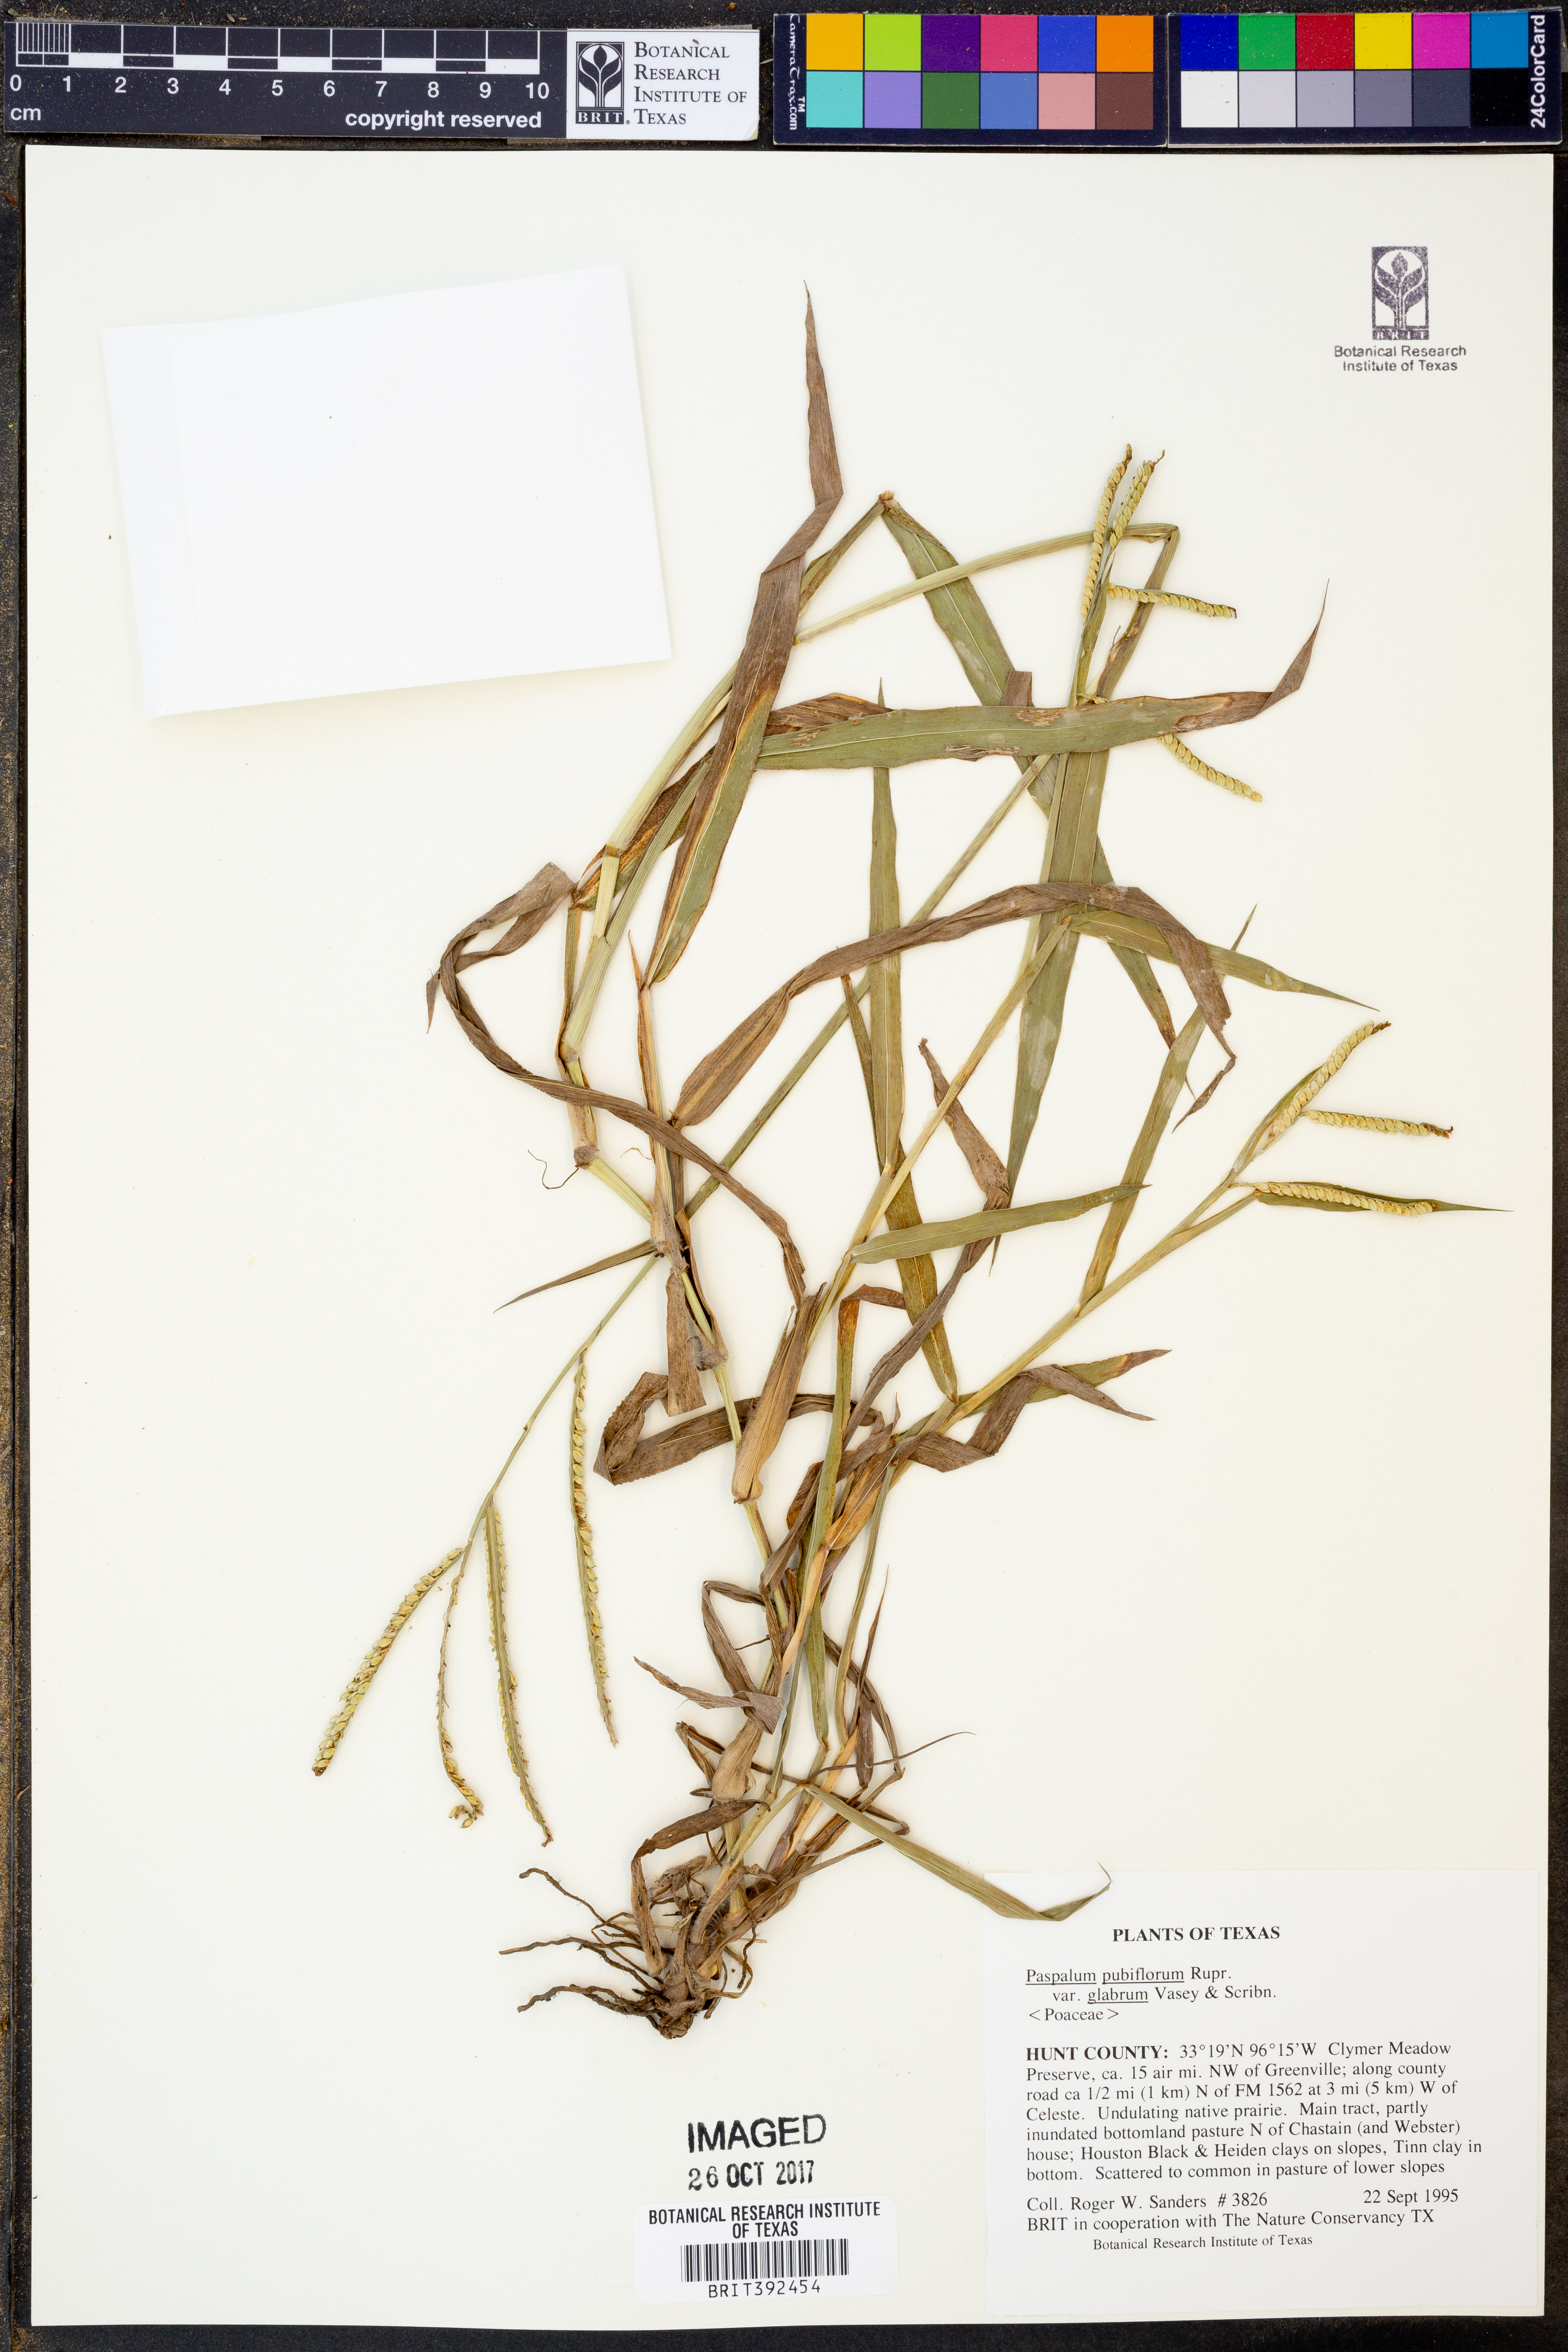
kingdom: Plantae
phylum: Tracheophyta
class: Liliopsida
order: Poales
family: Poaceae
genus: Paspalum
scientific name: Paspalum pubiflorum
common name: Hairy-seed paspalum
